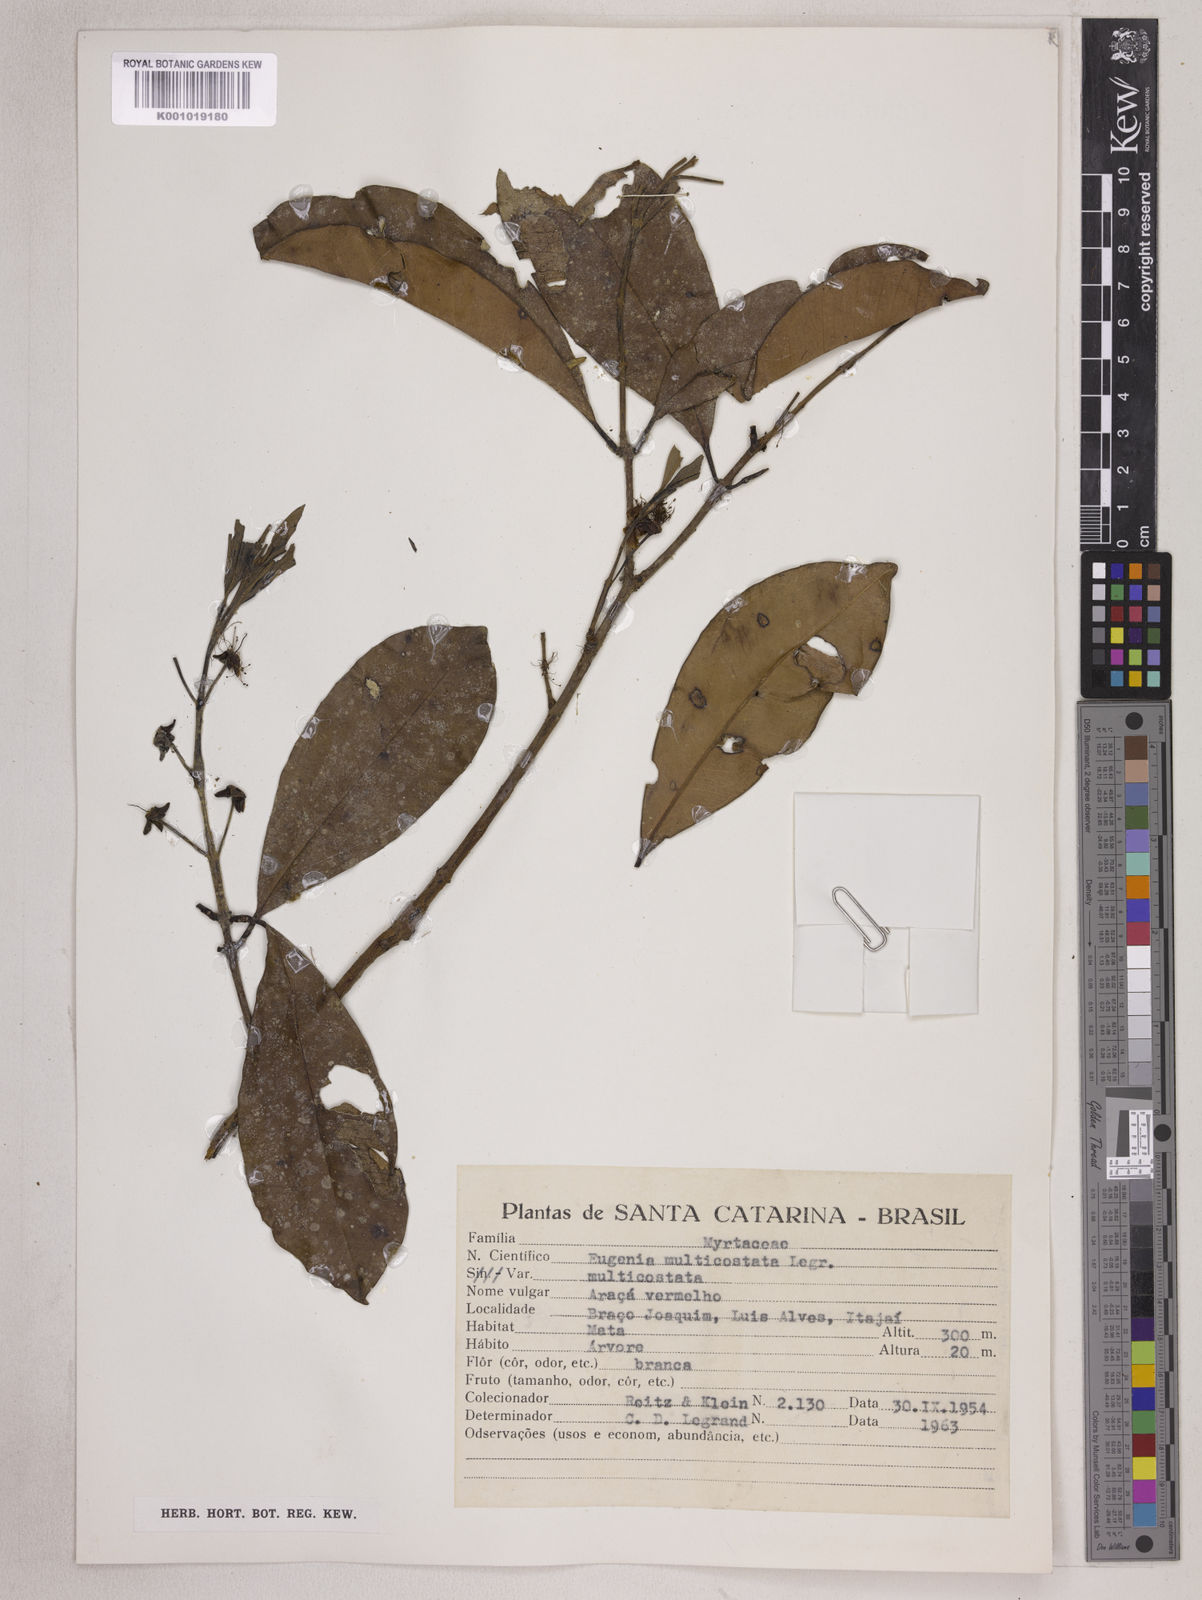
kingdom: Plantae
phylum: Tracheophyta
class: Magnoliopsida
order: Myrtales
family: Myrtaceae
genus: Eugenia
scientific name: Eugenia multicostata
